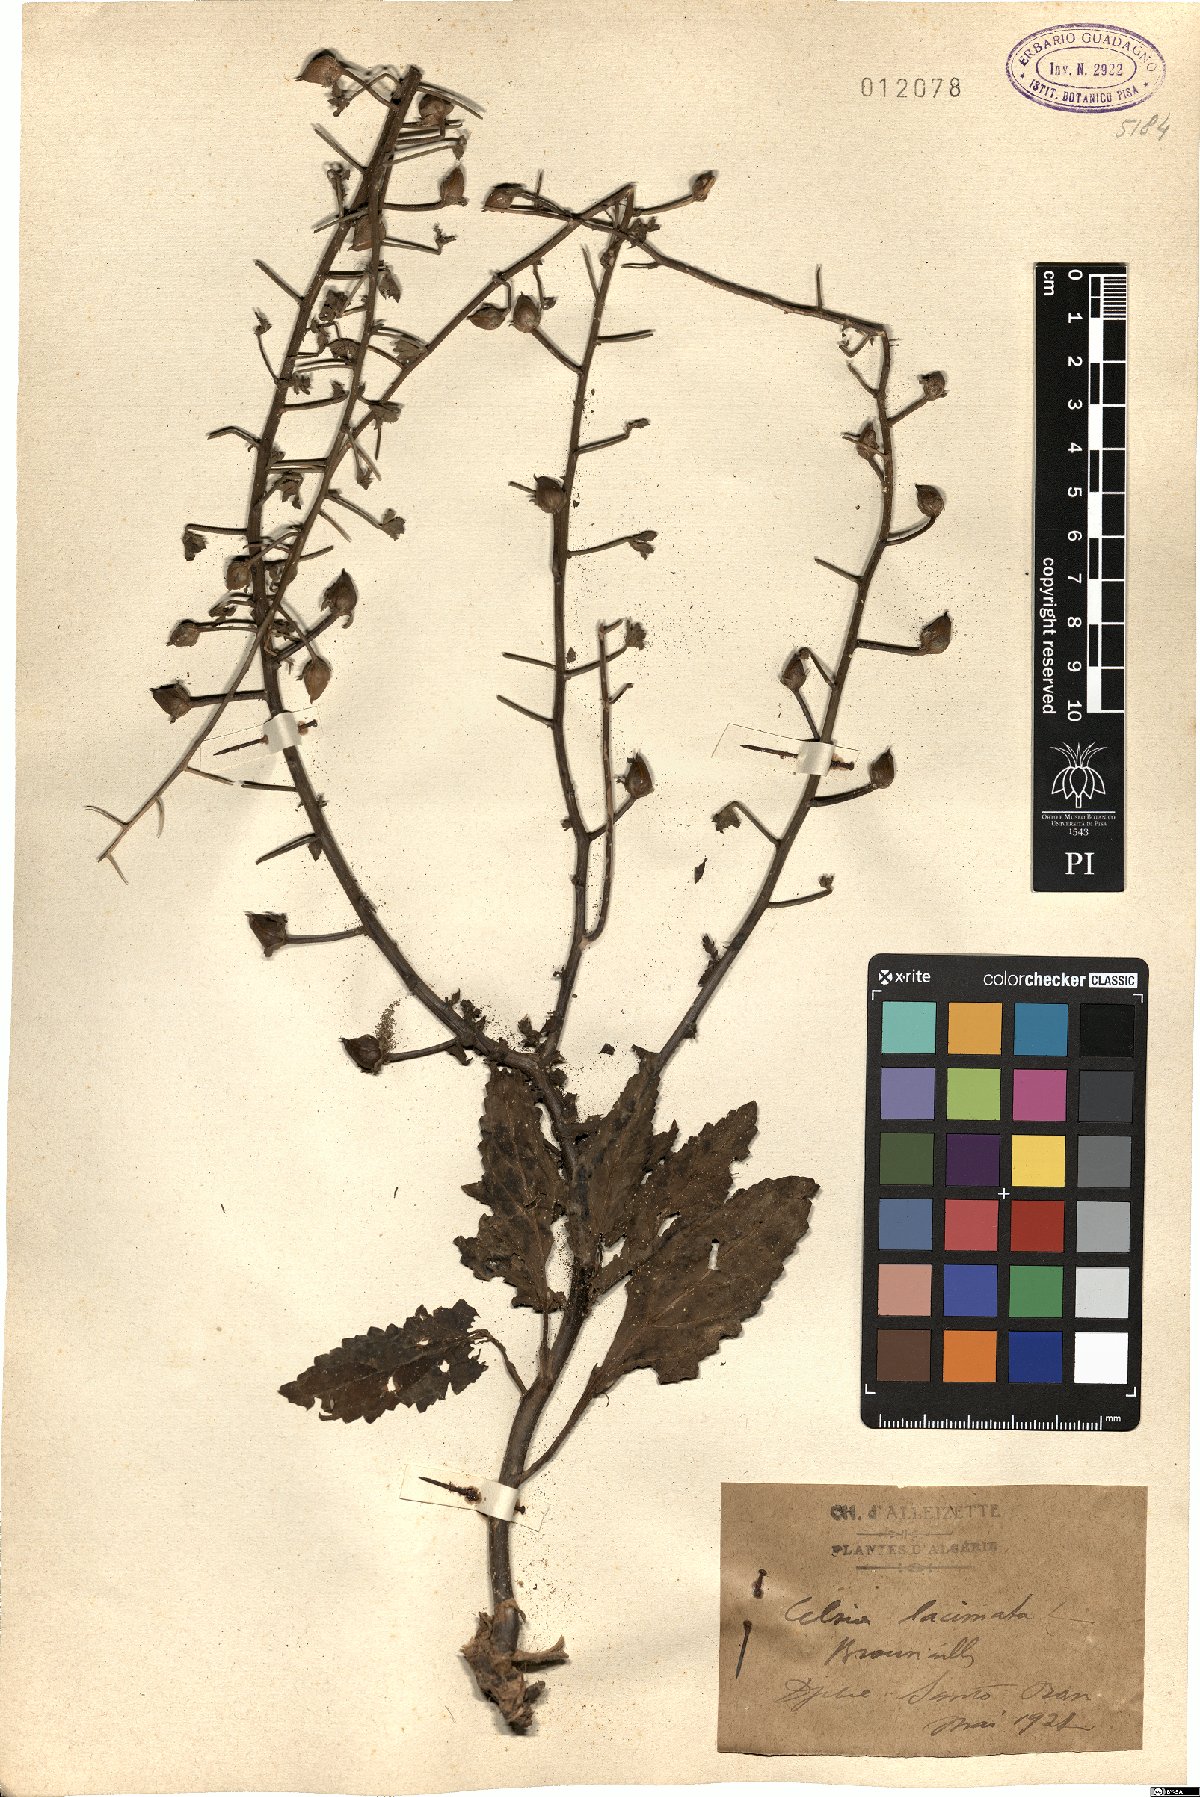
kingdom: Plantae
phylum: Tracheophyta
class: Magnoliopsida
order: Lamiales
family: Scrophulariaceae
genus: Verbascum
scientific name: Verbascum erosum
